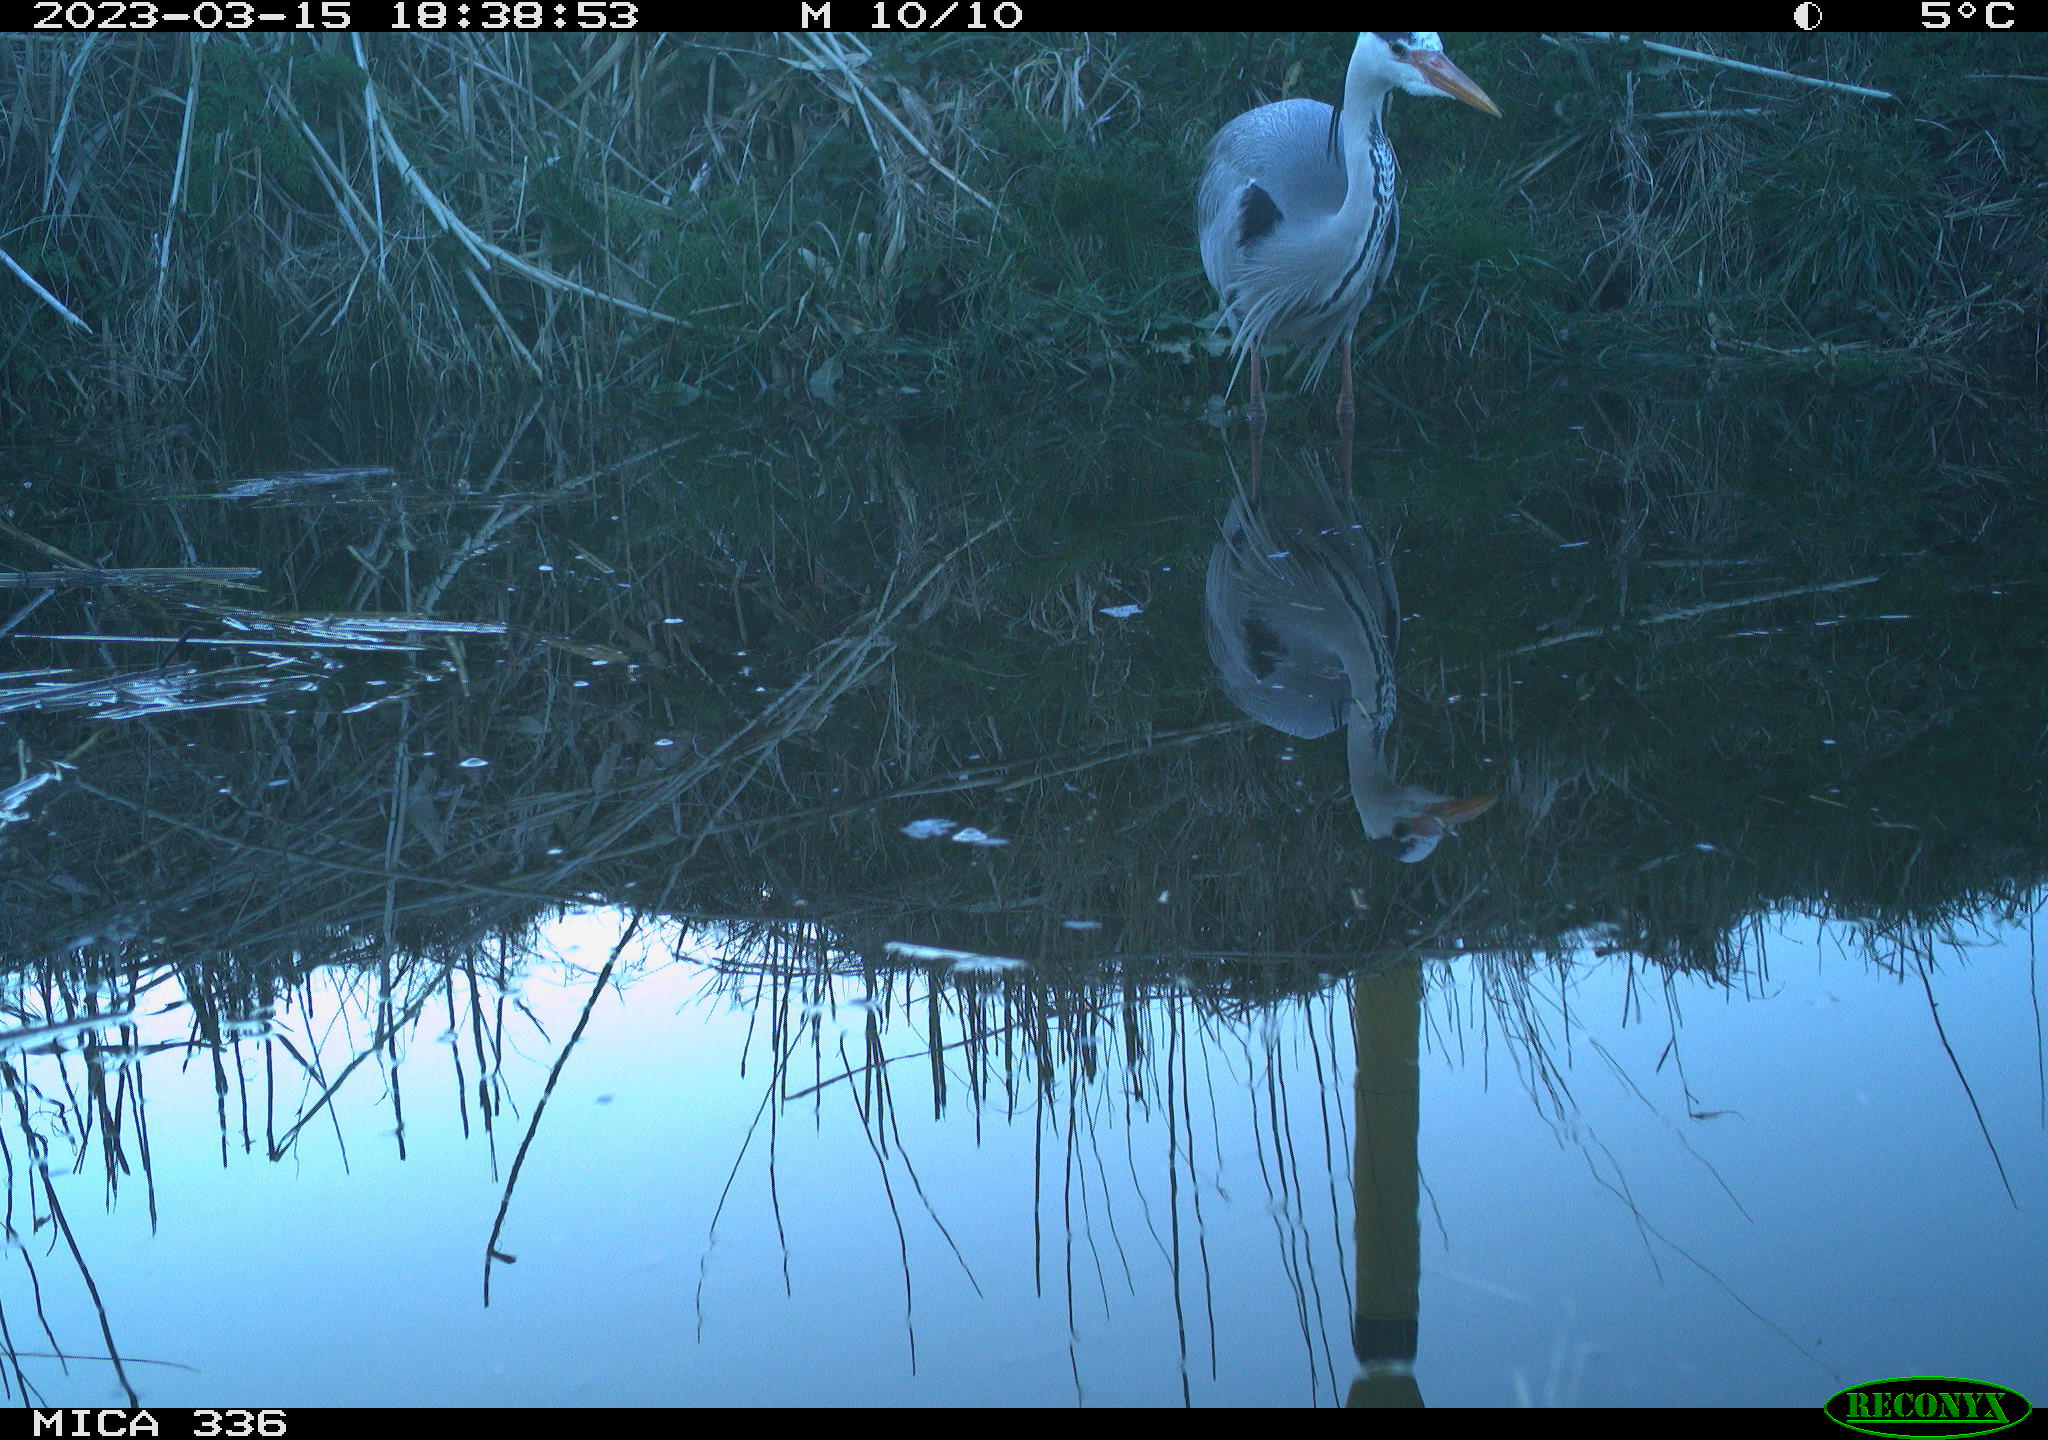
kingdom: Animalia
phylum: Chordata
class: Aves
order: Pelecaniformes
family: Ardeidae
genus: Ardea
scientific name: Ardea cinerea
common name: Grey heron
